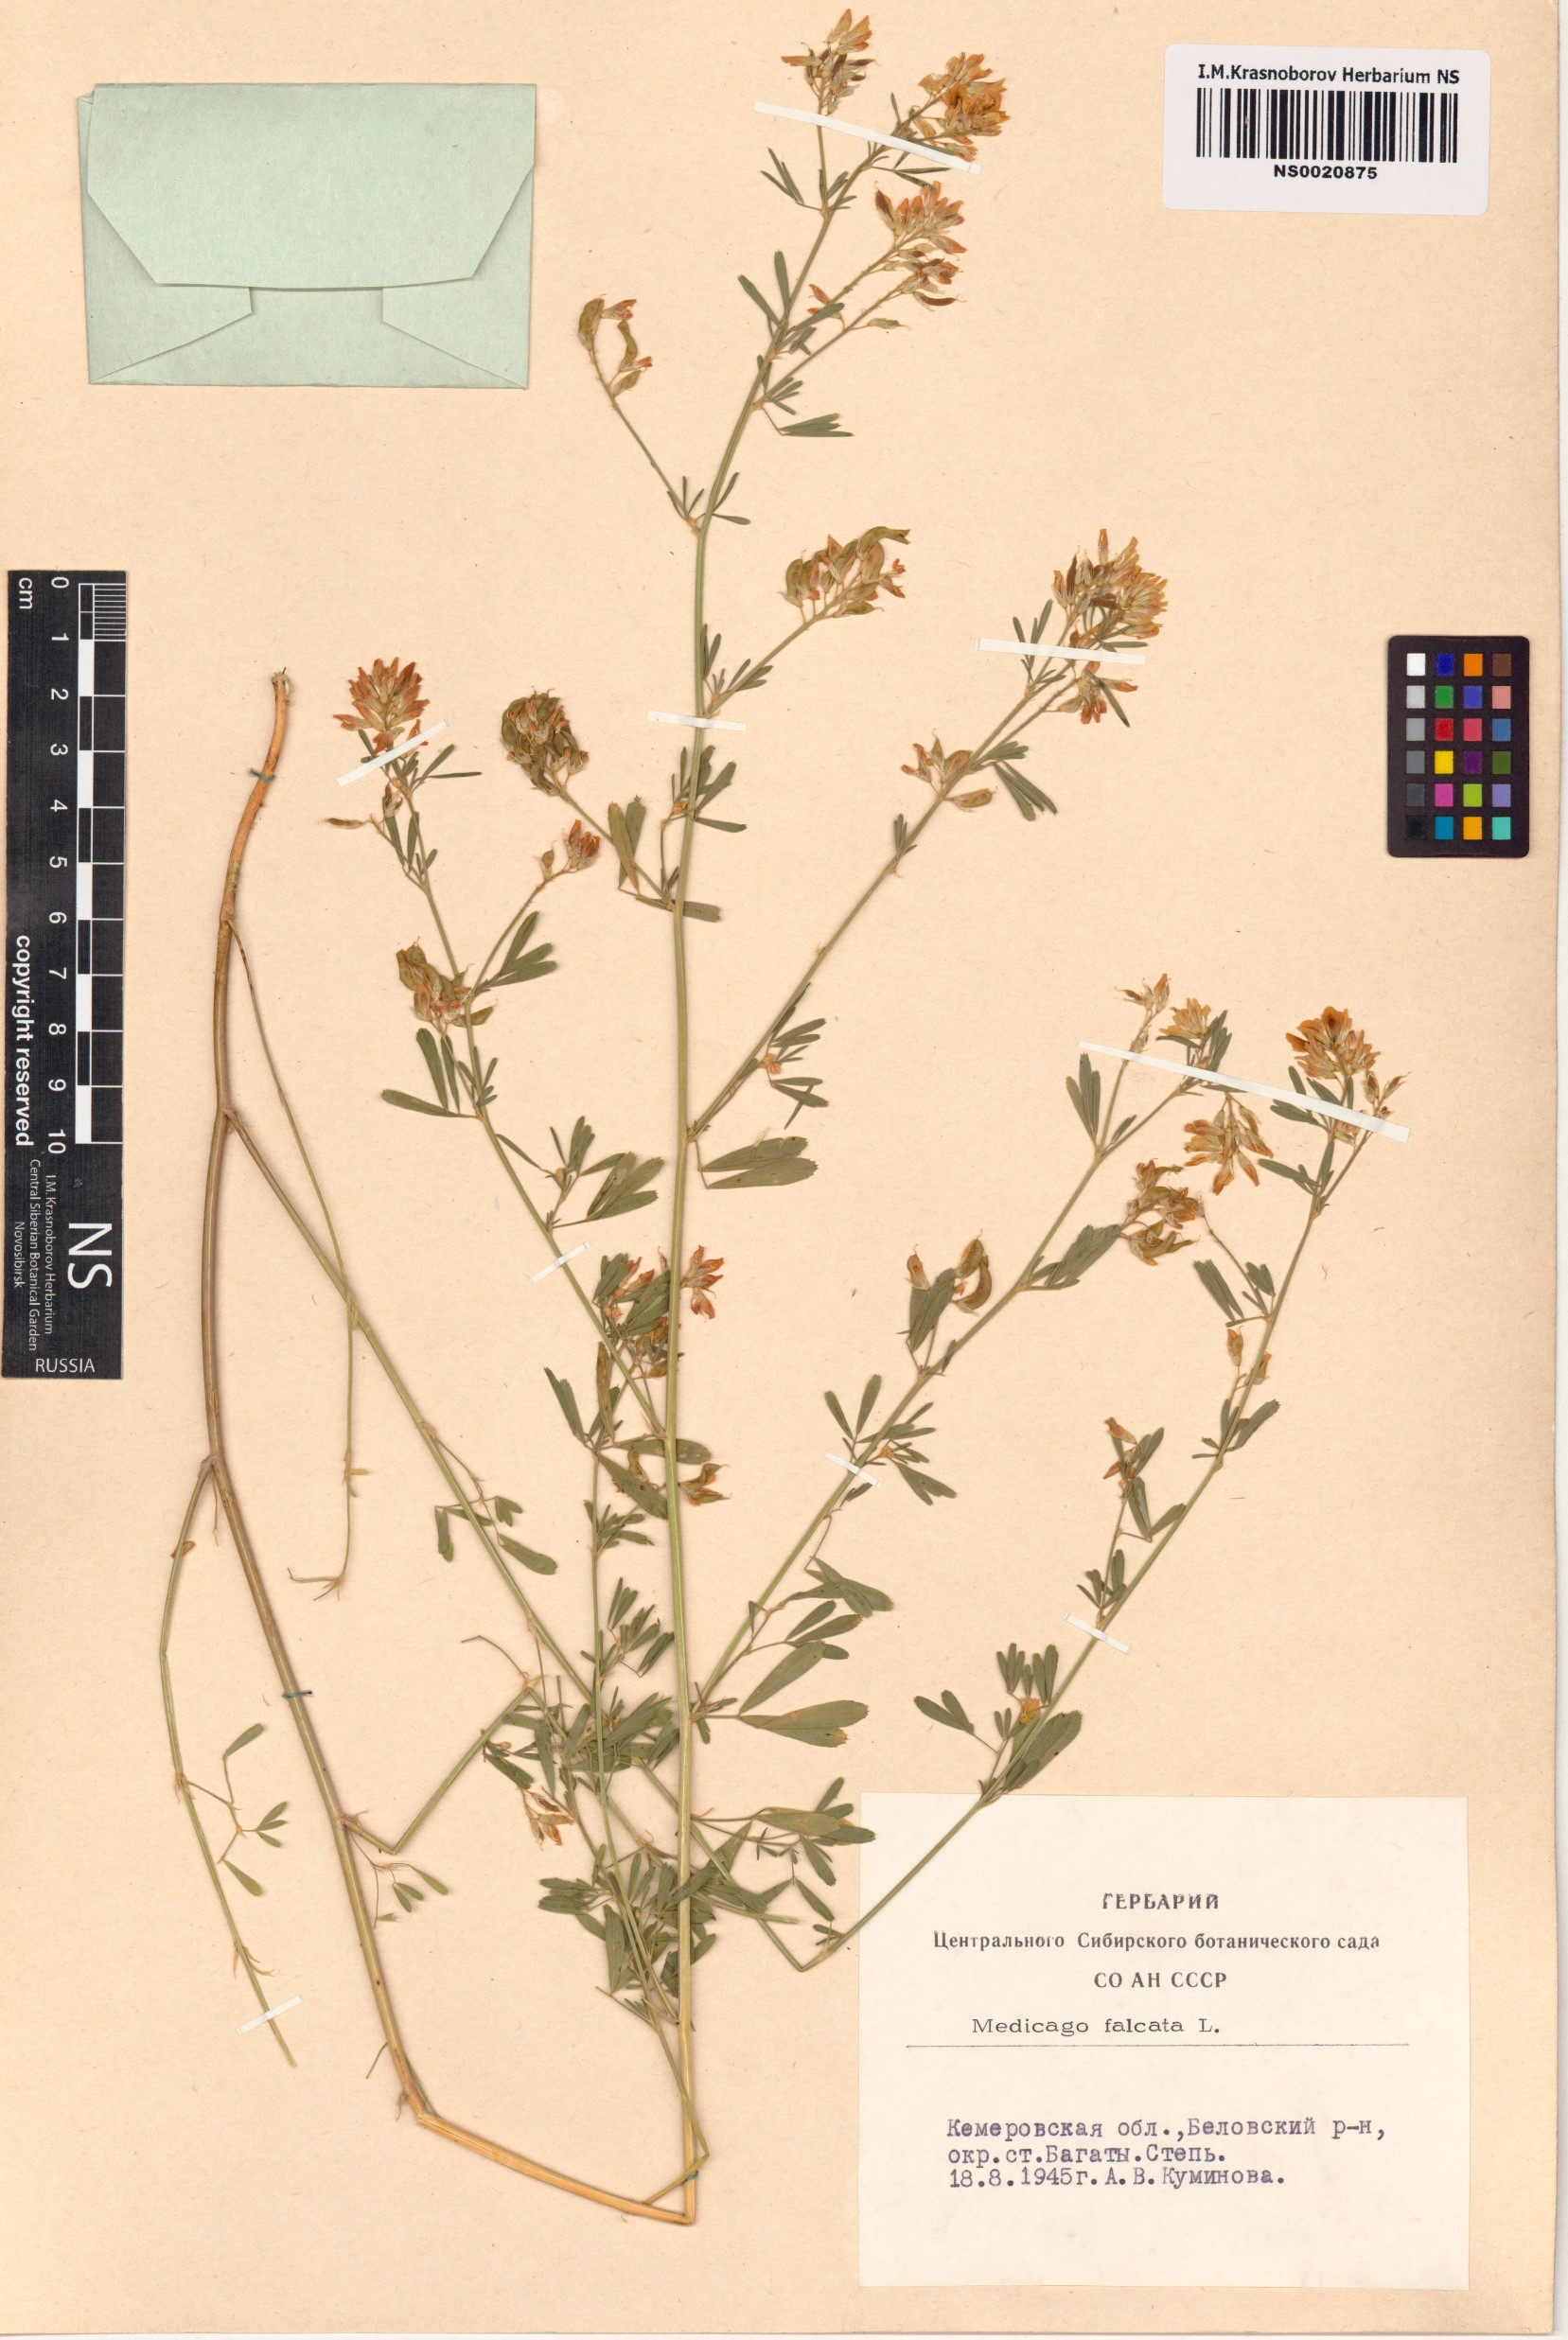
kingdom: Plantae
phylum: Tracheophyta
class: Magnoliopsida
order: Fabales
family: Fabaceae
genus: Medicago
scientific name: Medicago falcata
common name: Sickle medick
